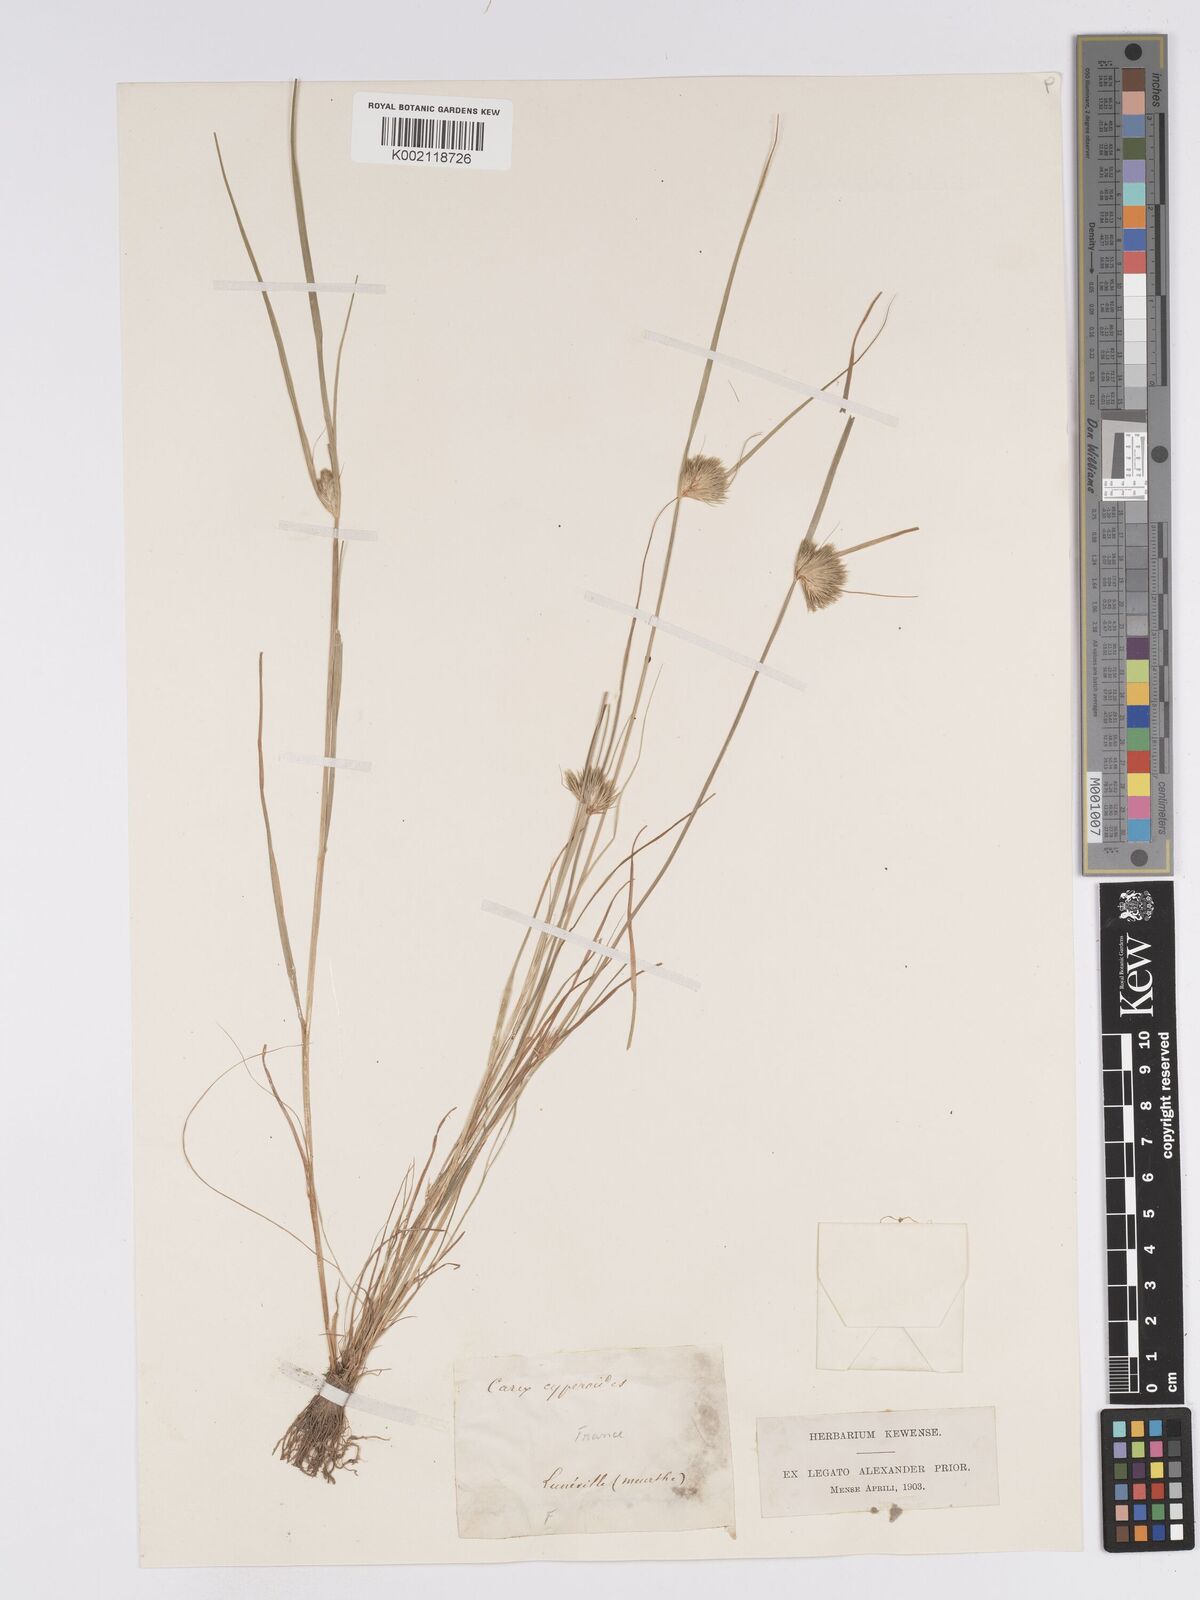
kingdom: Plantae
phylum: Tracheophyta
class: Liliopsida
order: Poales
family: Cyperaceae
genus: Carex
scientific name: Carex bohemica
